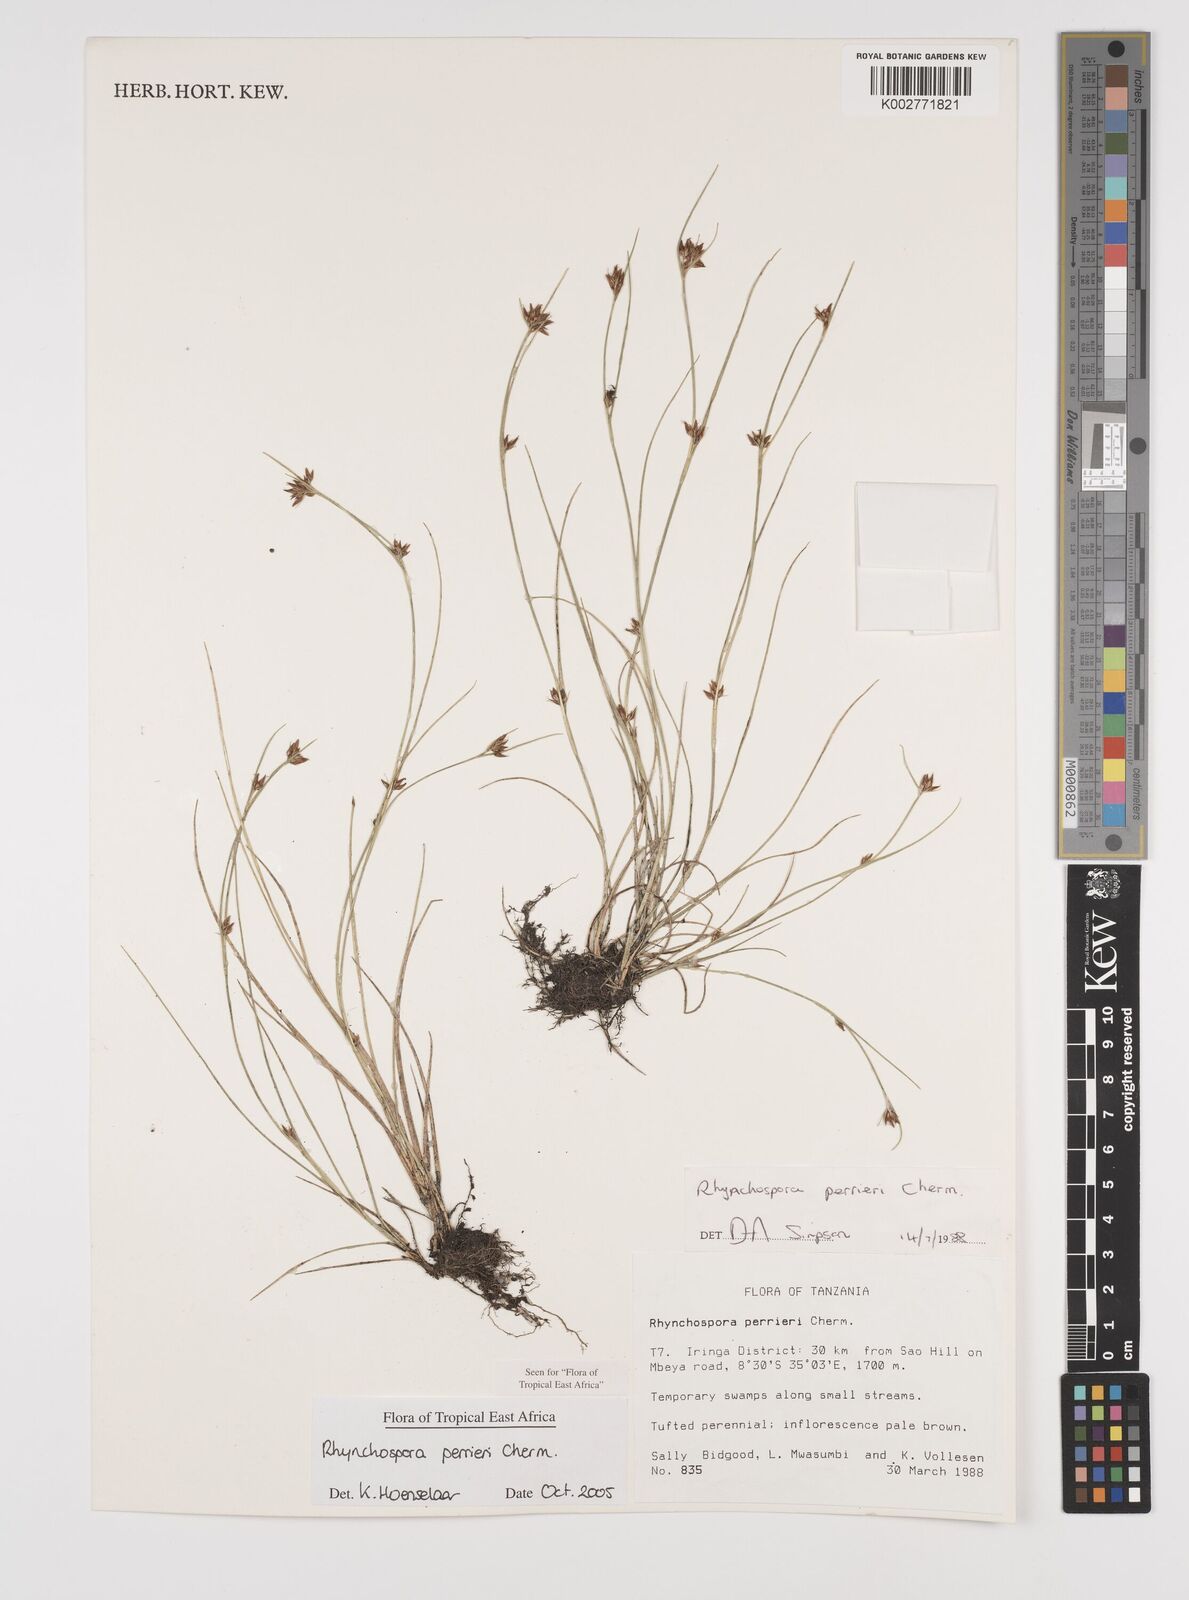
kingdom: Plantae
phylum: Tracheophyta
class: Liliopsida
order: Poales
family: Cyperaceae
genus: Rhynchospora
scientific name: Rhynchospora perrieri
